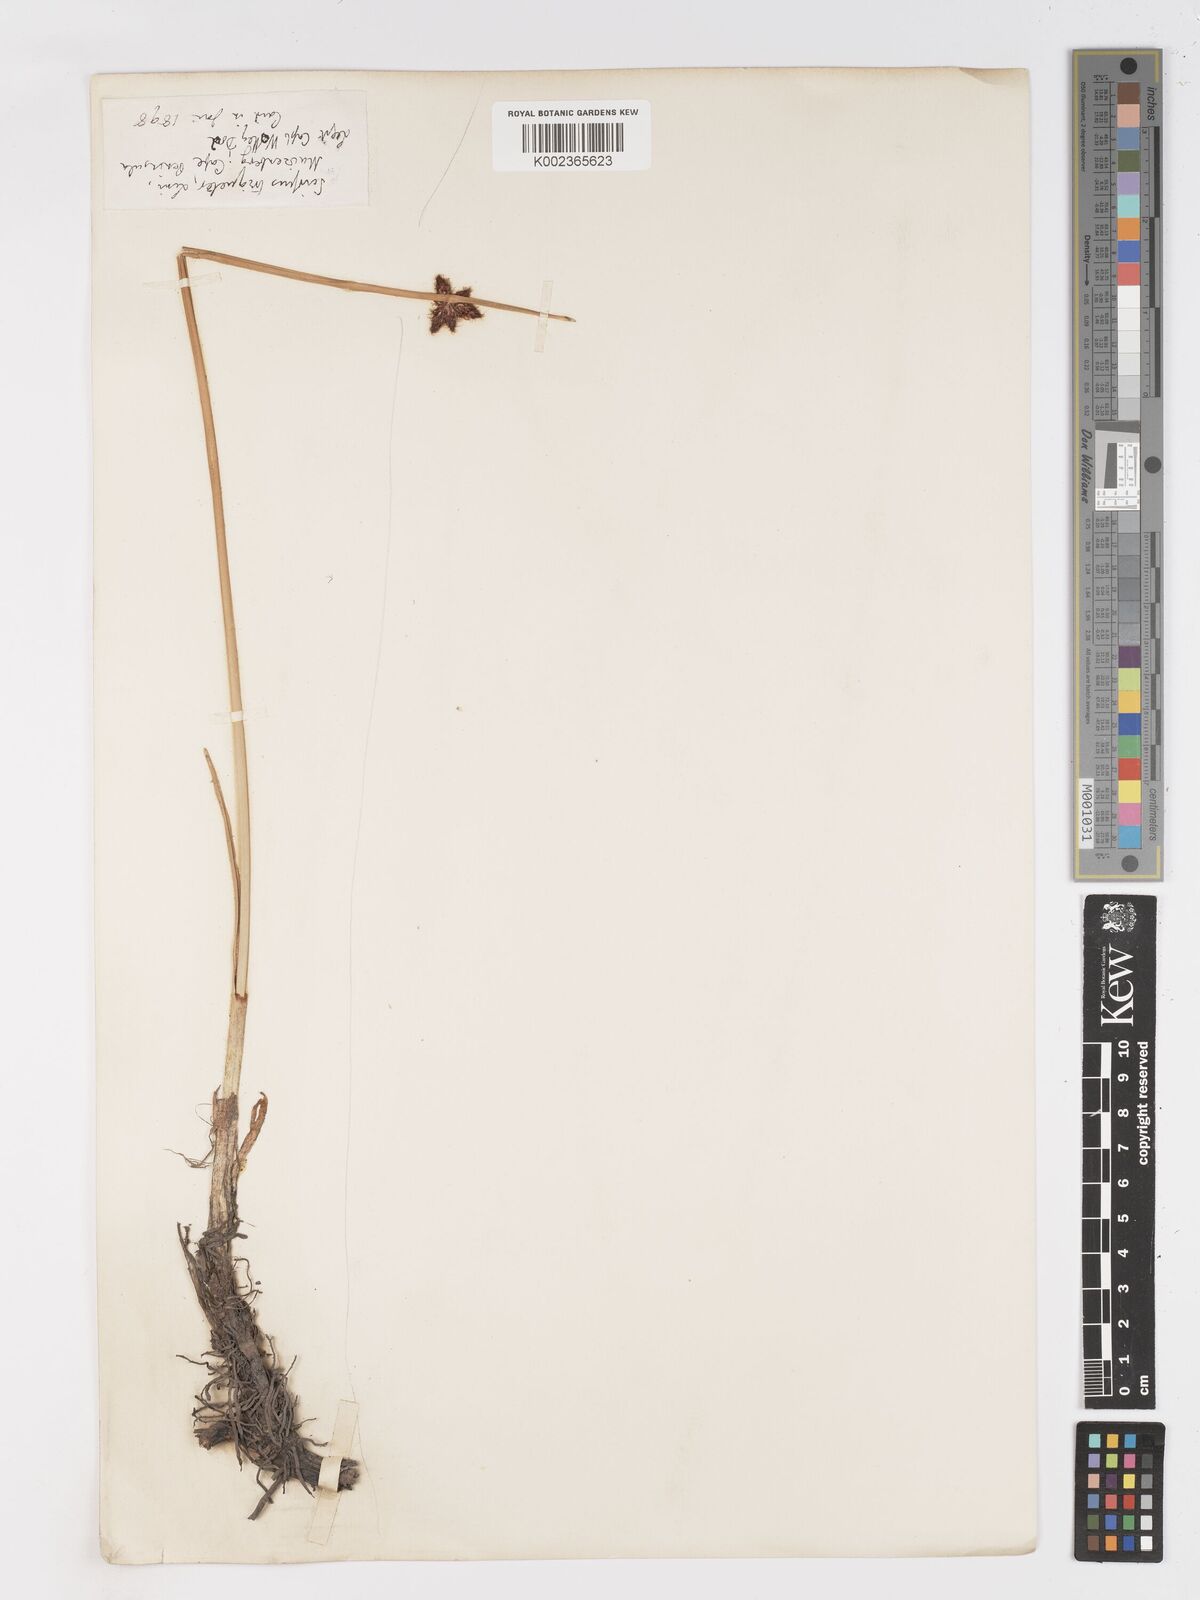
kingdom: Plantae
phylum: Tracheophyta
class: Liliopsida
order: Poales
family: Cyperaceae
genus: Schoenoplectus
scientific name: Schoenoplectus triqueter
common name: Triangular club-rush
